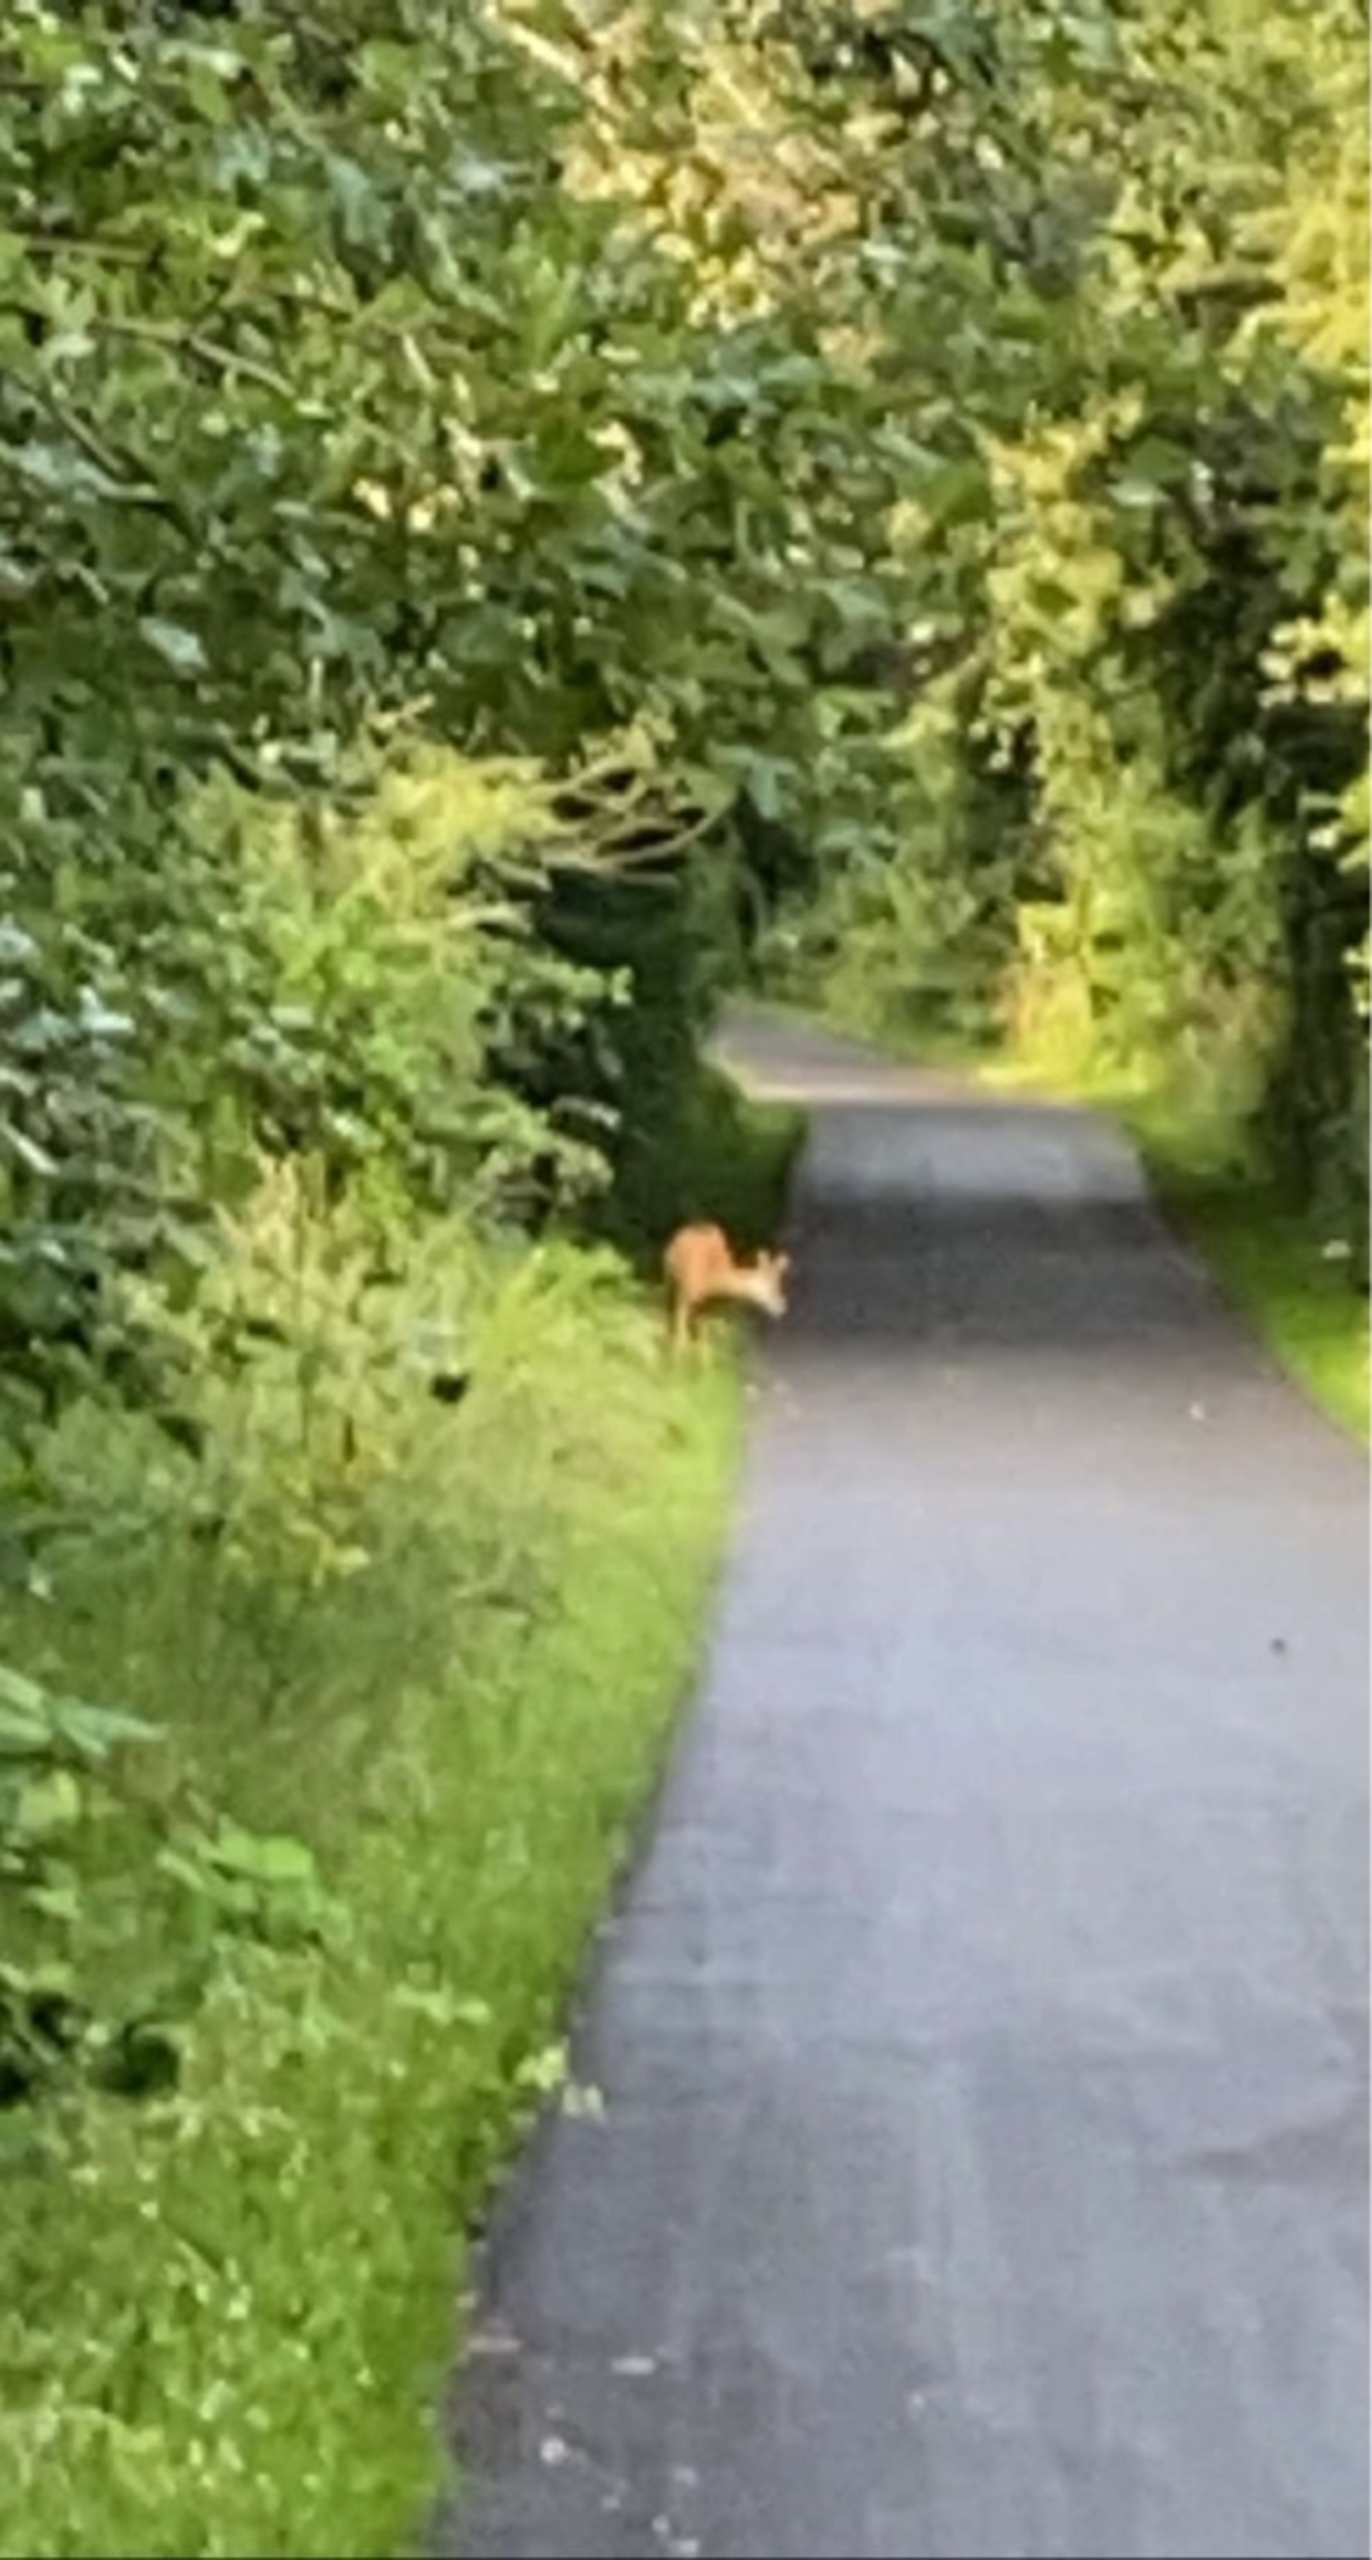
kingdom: Animalia
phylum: Chordata
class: Mammalia
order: Artiodactyla
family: Cervidae
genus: Capreolus
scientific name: Capreolus capreolus
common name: Rådyr
